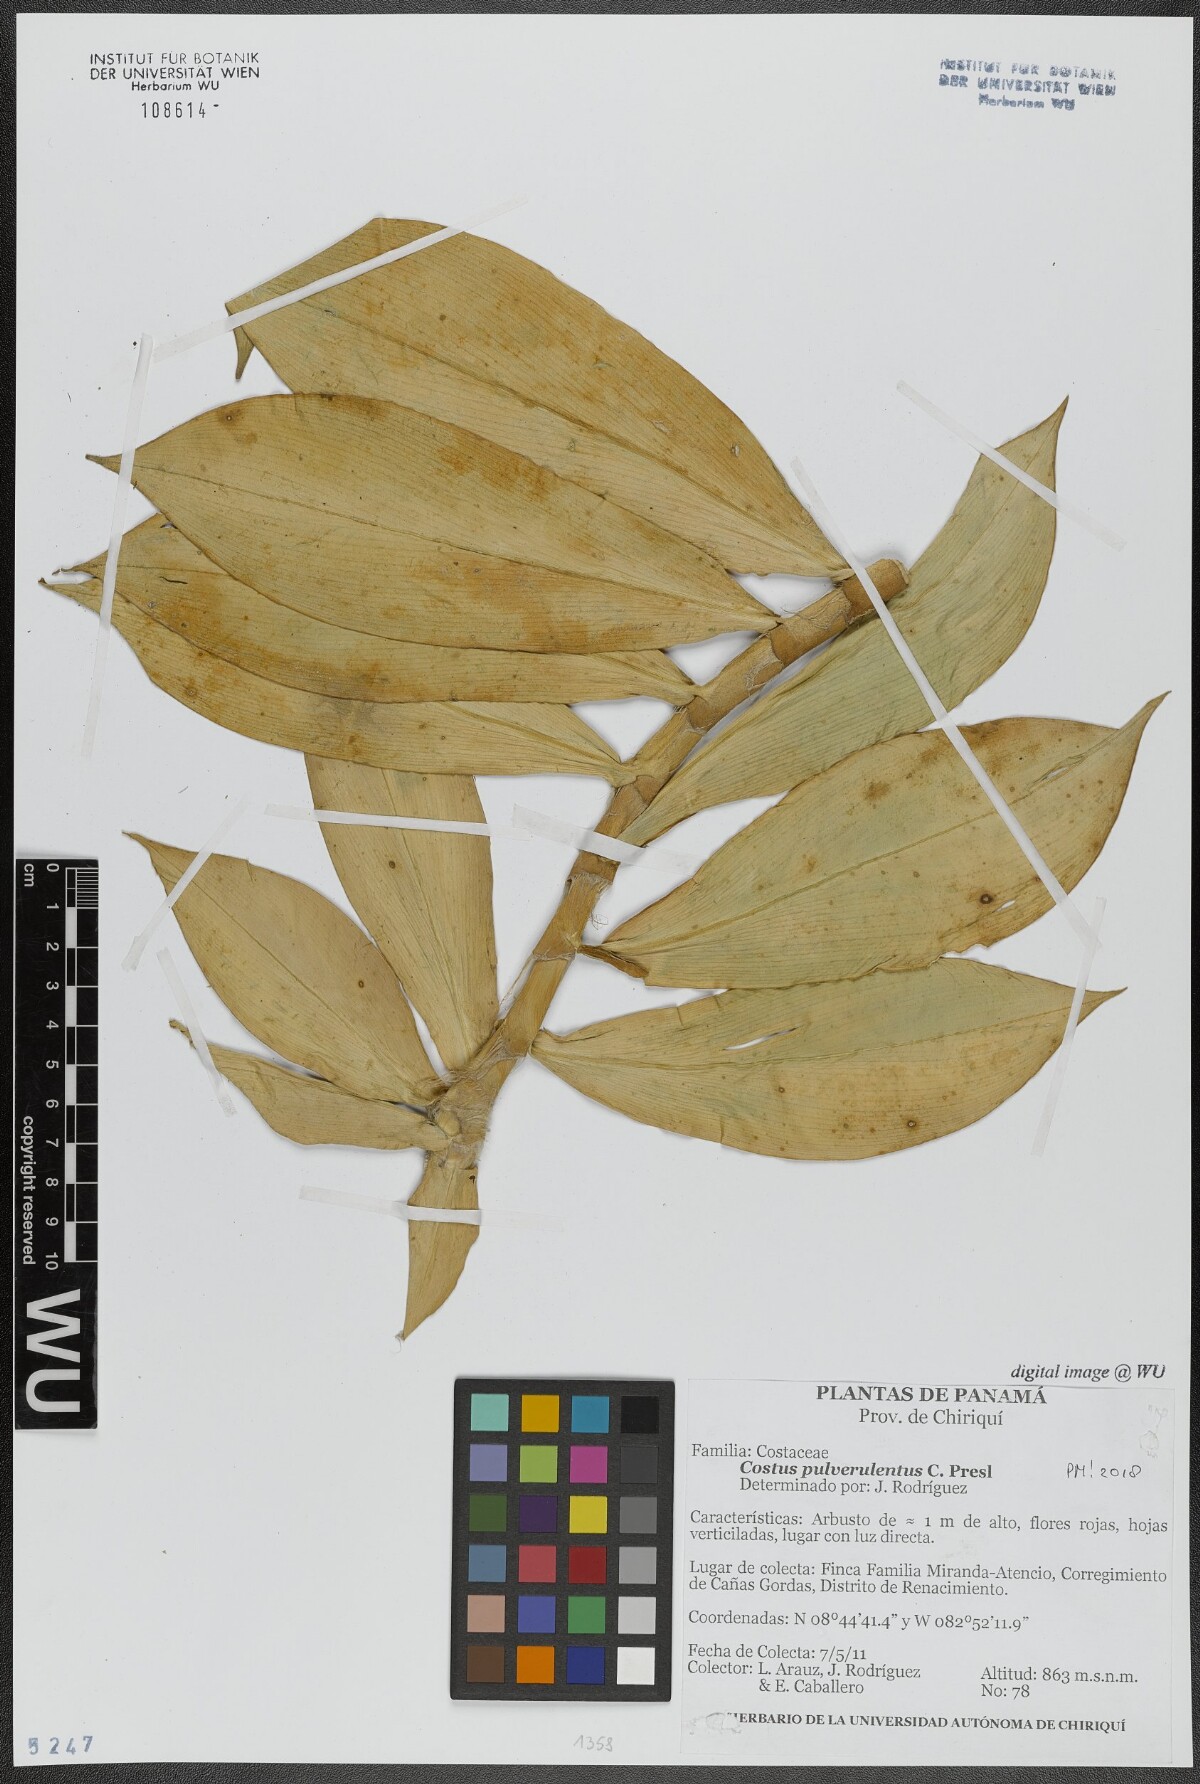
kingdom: Plantae
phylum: Tracheophyta
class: Liliopsida
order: Zingiberales
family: Costaceae
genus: Costus
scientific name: Costus pulverulentus
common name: Spiral ginger
